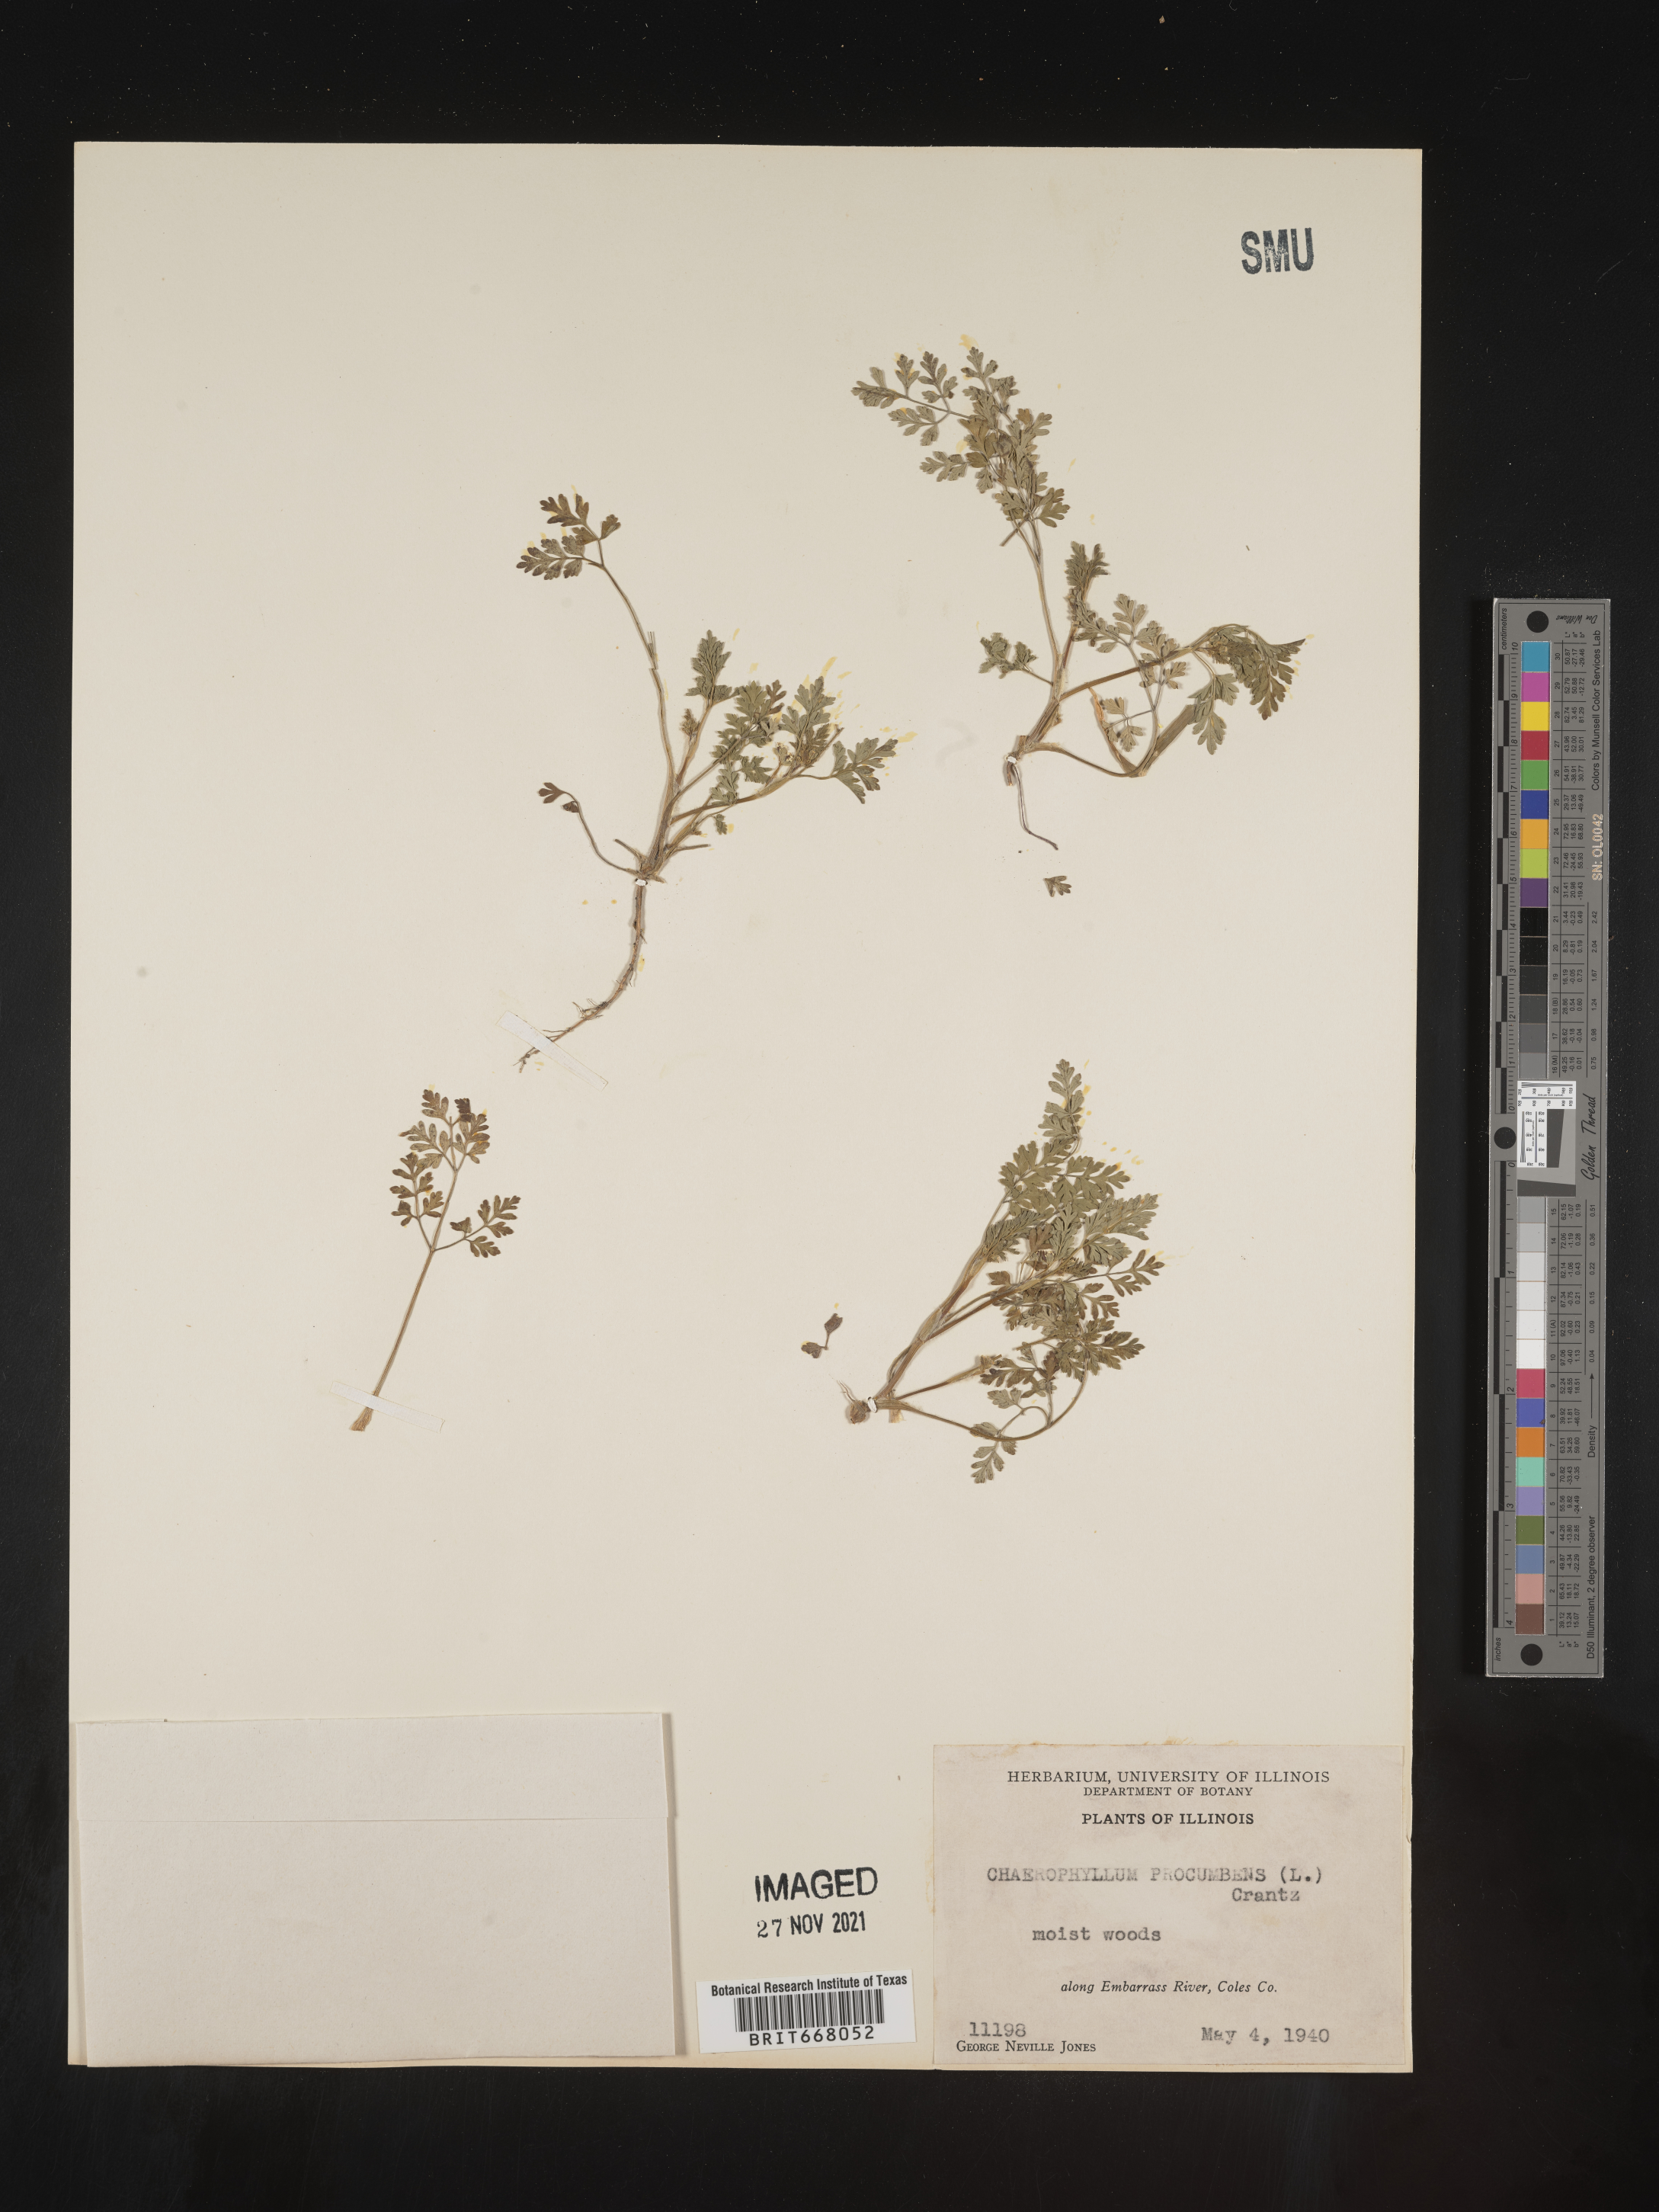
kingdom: Plantae
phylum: Tracheophyta
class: Magnoliopsida
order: Apiales
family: Apiaceae
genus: Chaerophyllum
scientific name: Chaerophyllum procumbens
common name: Spreading chervil
